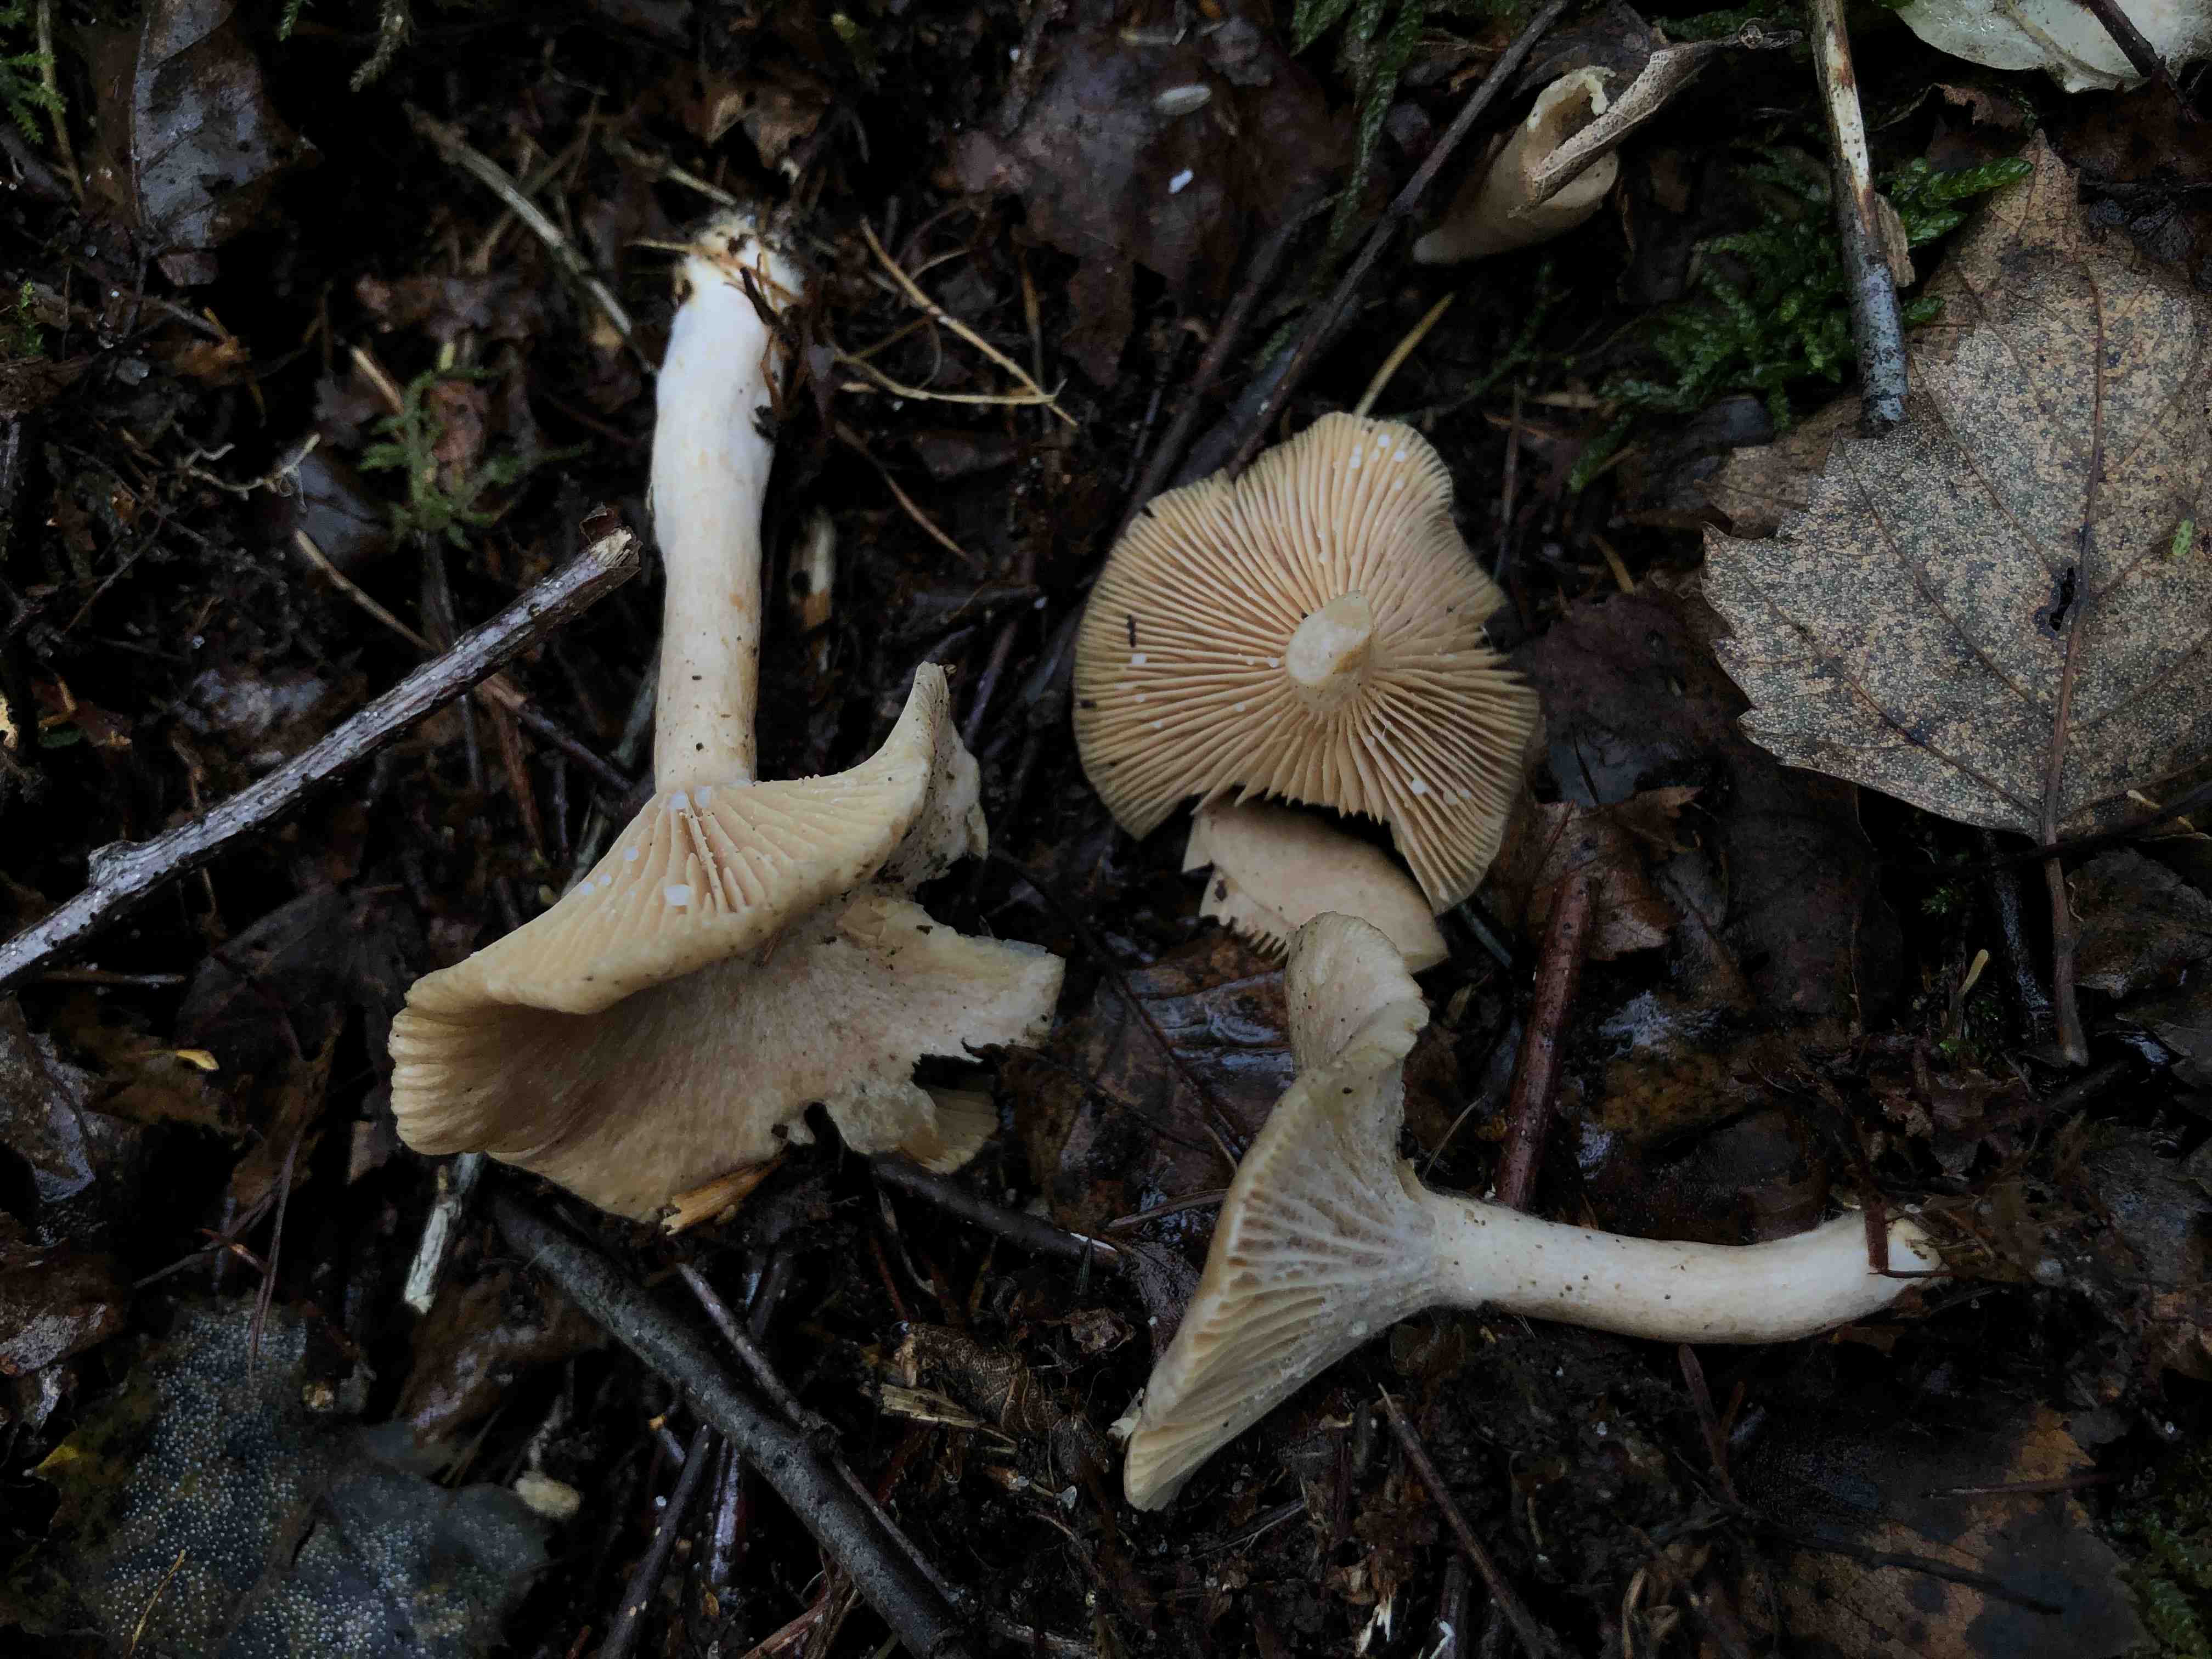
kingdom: Fungi
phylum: Basidiomycota
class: Agaricomycetes
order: Russulales
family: Russulaceae
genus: Lactarius
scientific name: Lactarius glyciosmus
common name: kokos-mælkehat
